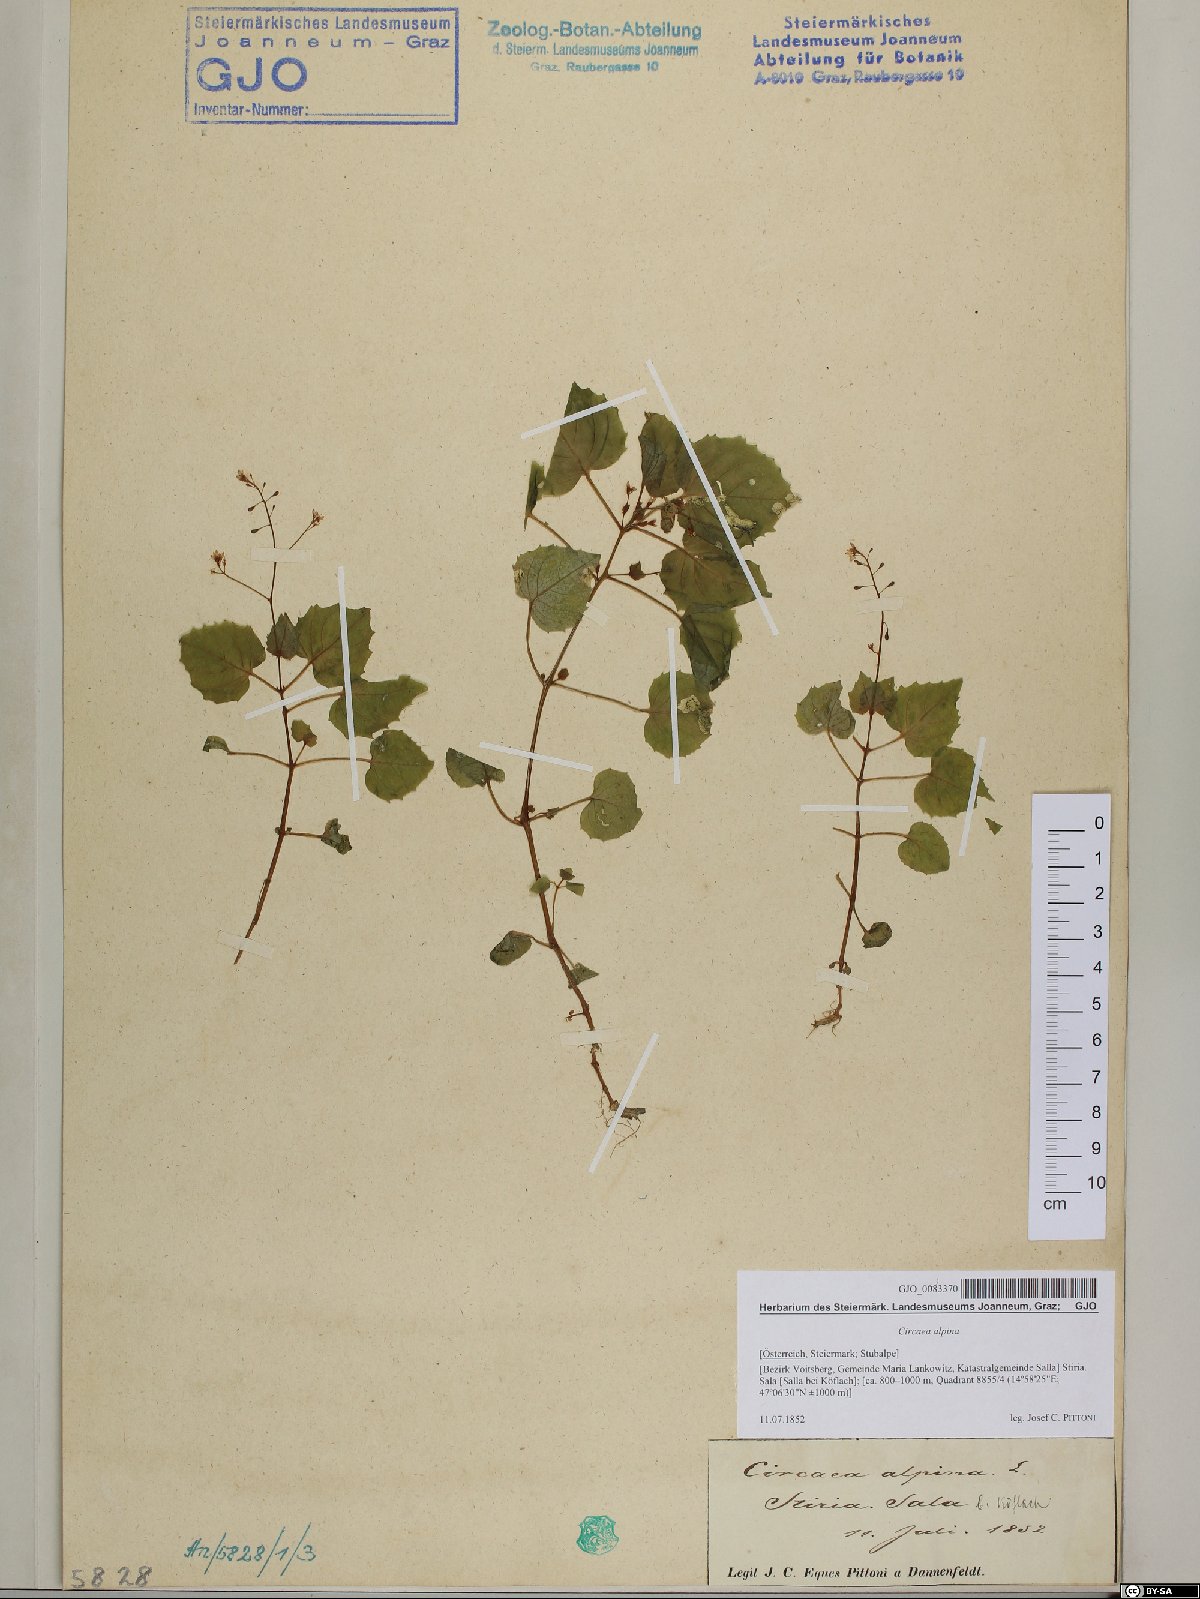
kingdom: Plantae
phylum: Tracheophyta
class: Magnoliopsida
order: Myrtales
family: Onagraceae
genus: Circaea
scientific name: Circaea alpina
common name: Alpine enchanter's-nightshade
